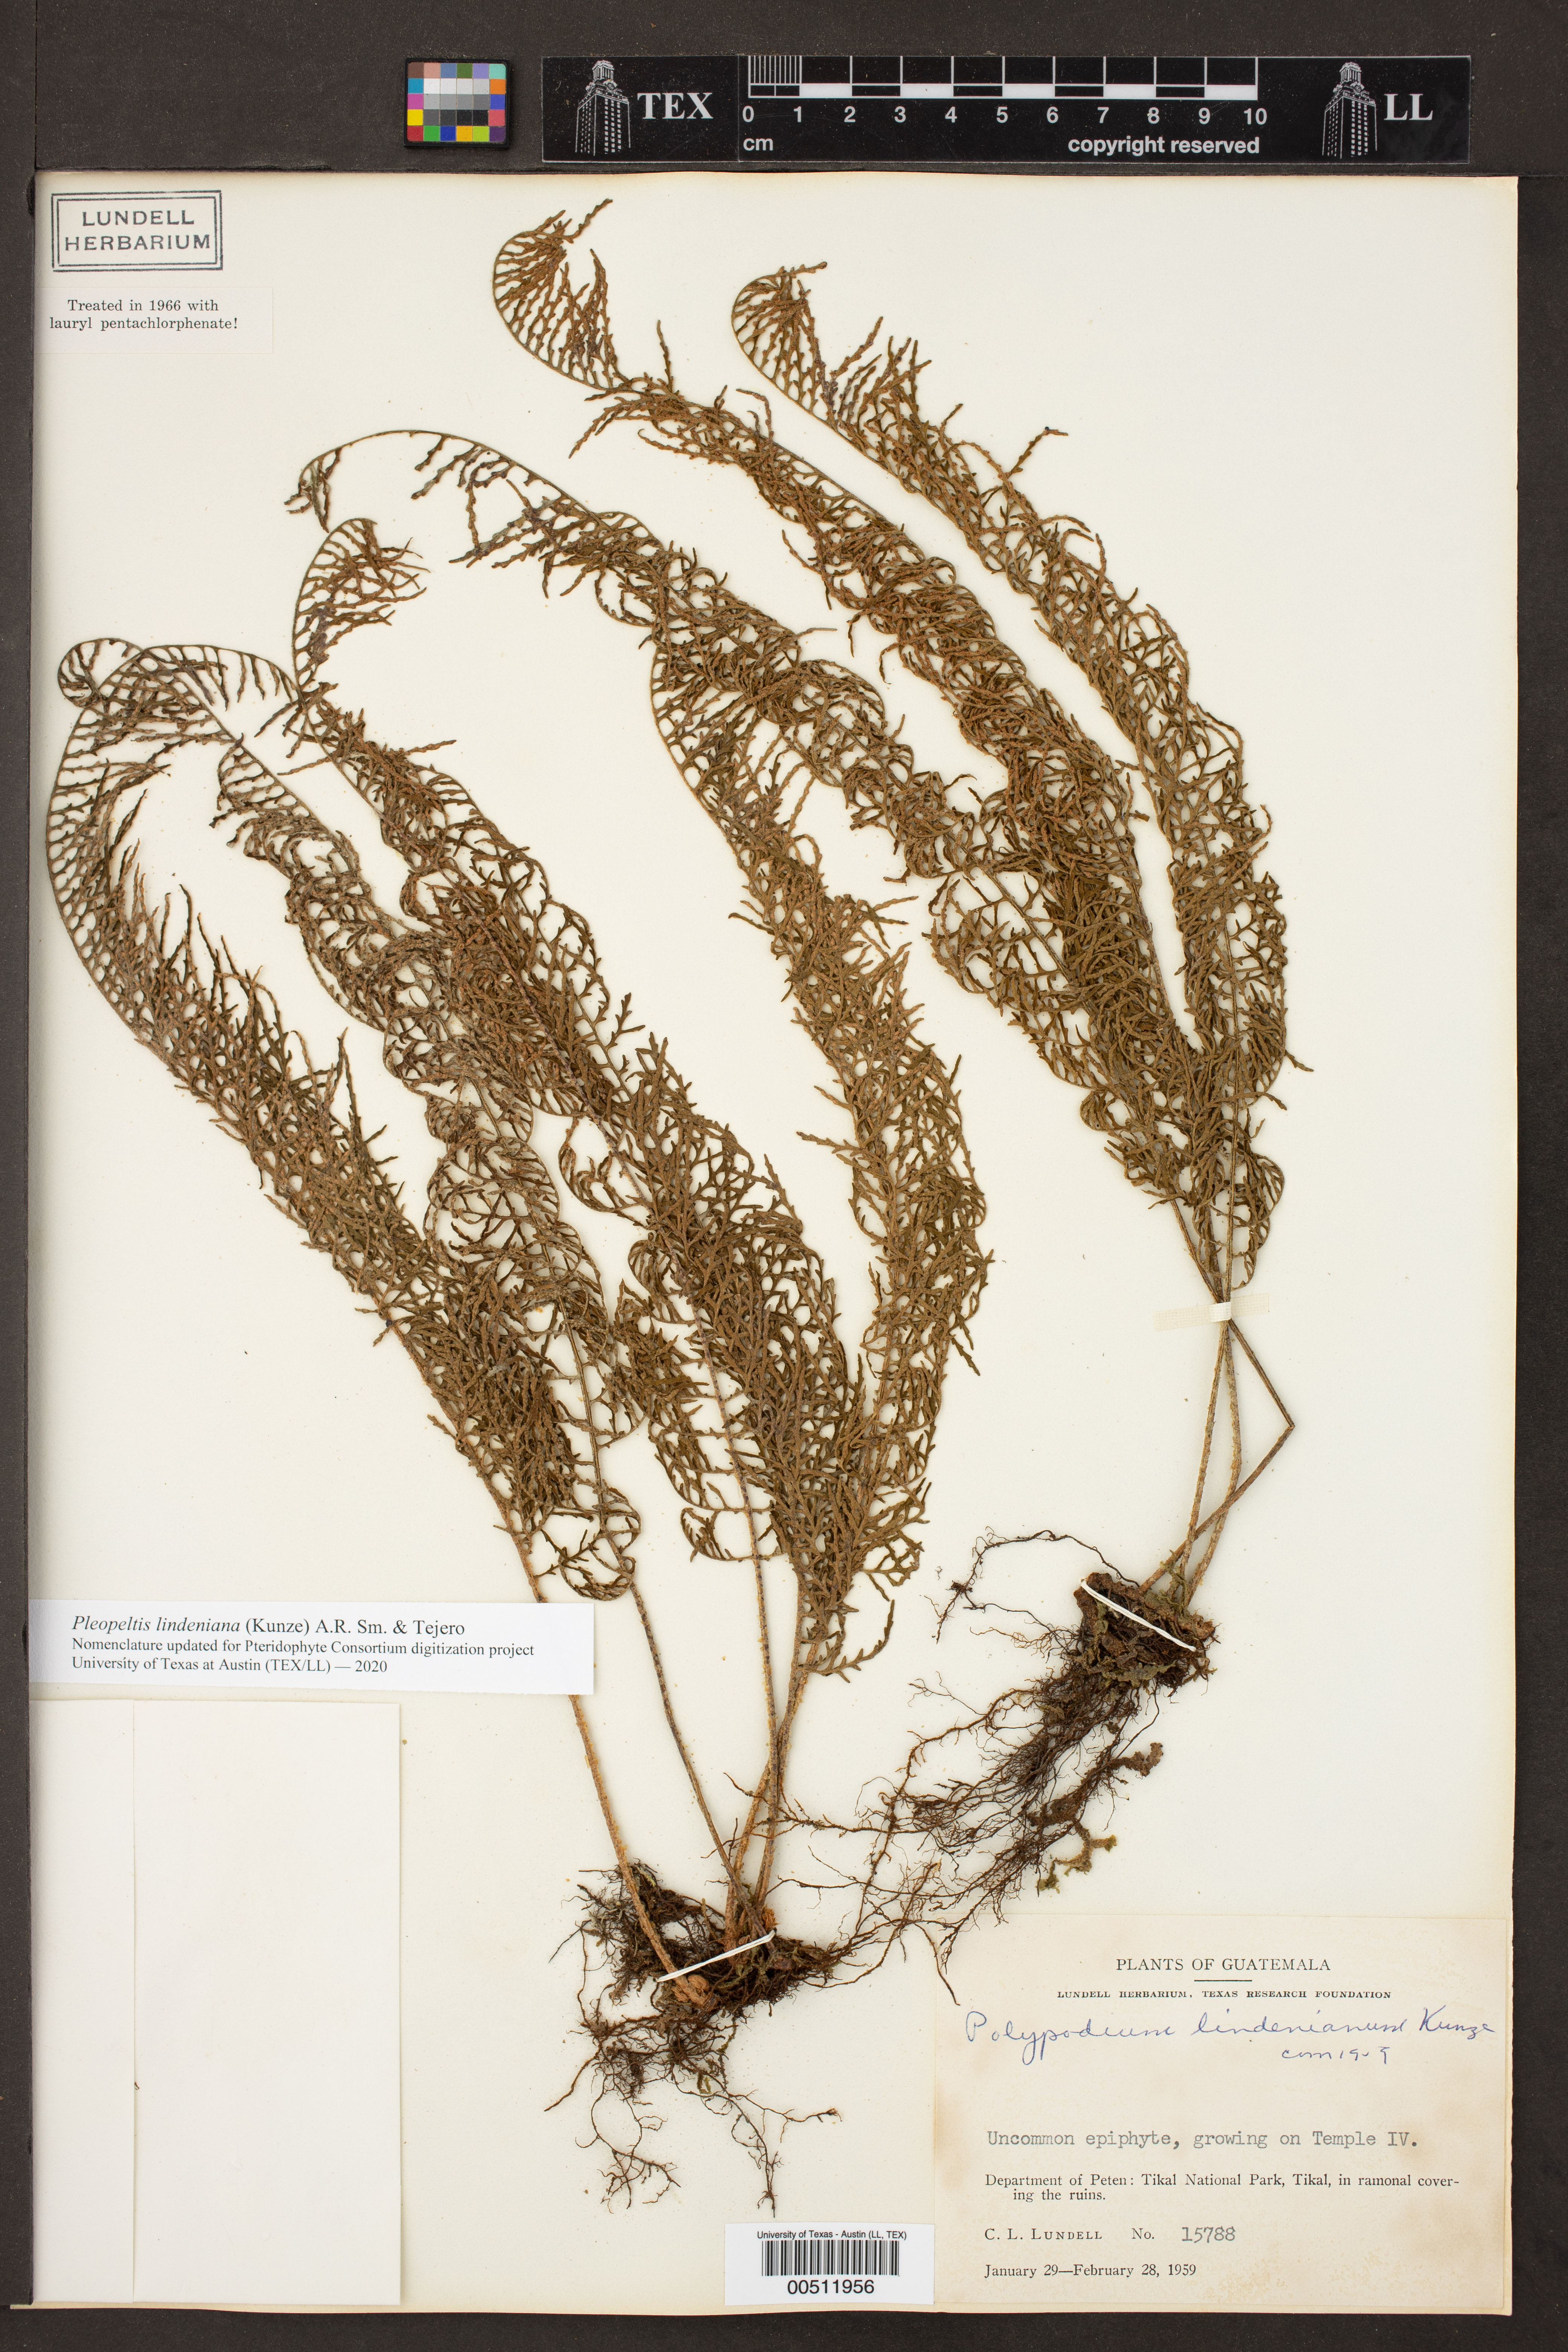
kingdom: Plantae
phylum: Tracheophyta
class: Polypodiopsida
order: Polypodiales
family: Polypodiaceae
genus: Pleopeltis
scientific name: Pleopeltis lindeniana
